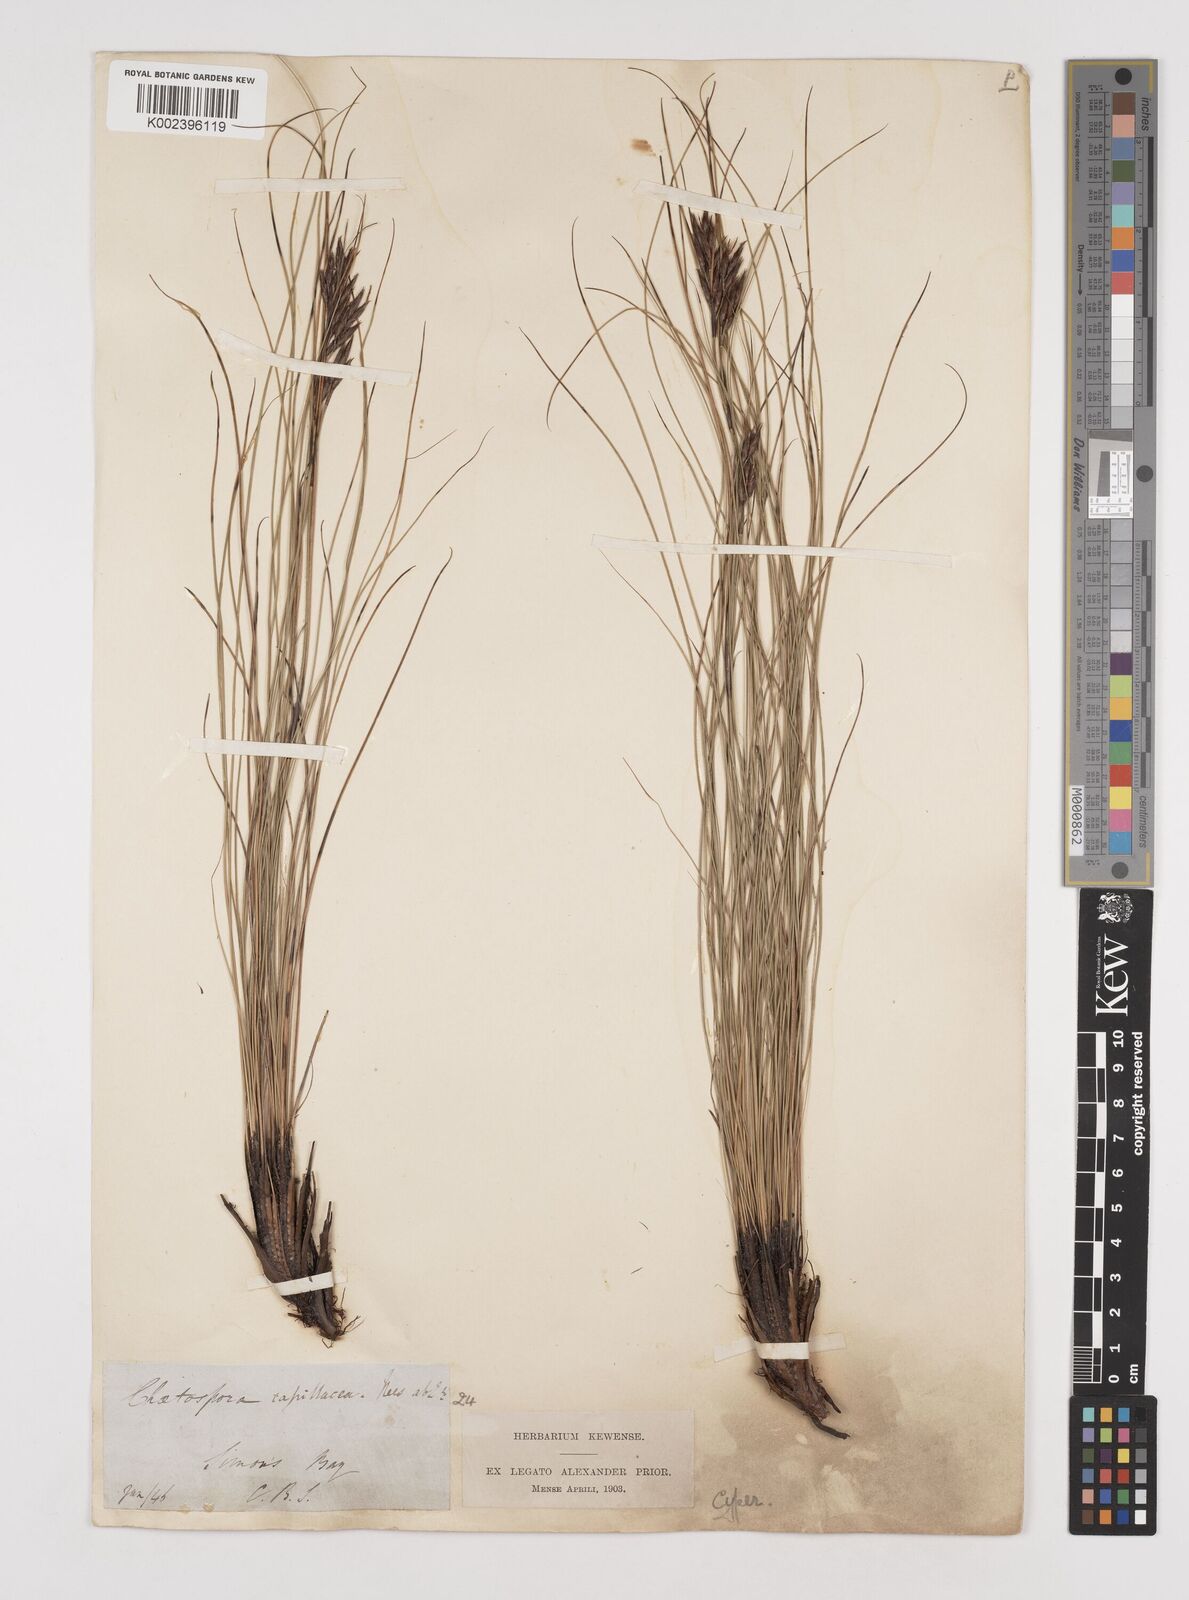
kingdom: Plantae
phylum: Tracheophyta
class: Liliopsida
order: Poales
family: Cyperaceae
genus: Tetraria
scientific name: Tetraria capillacea
